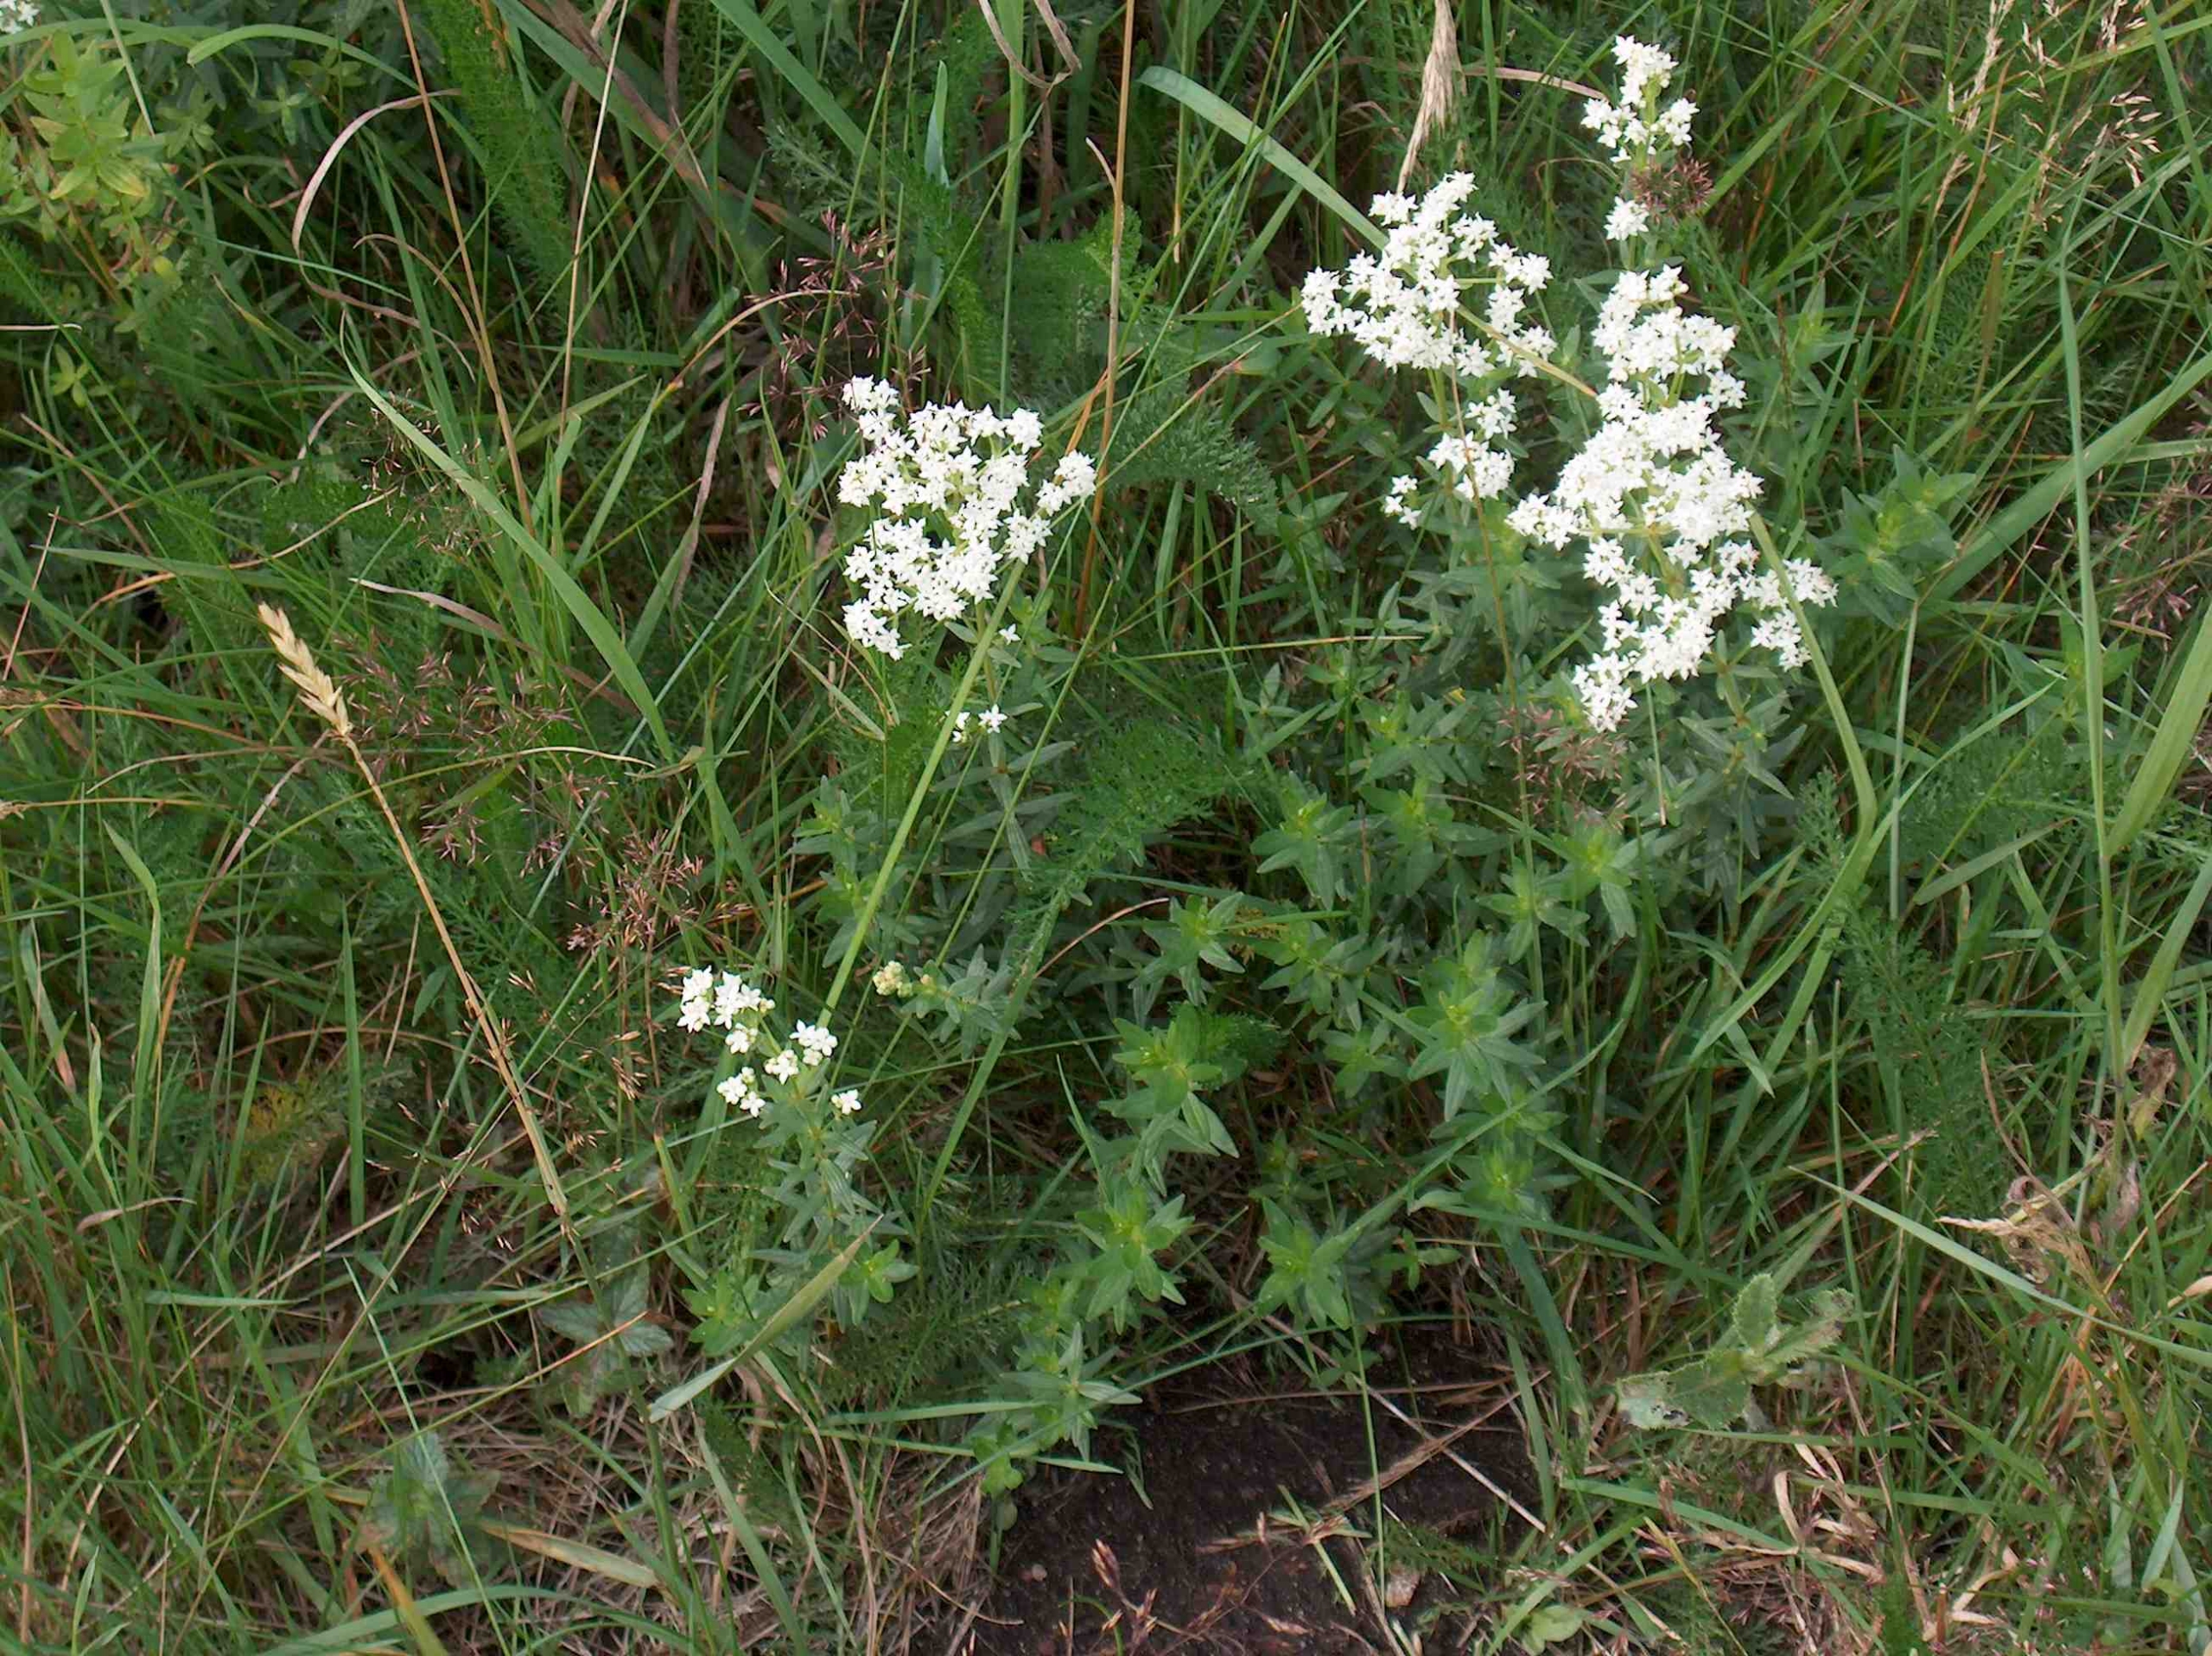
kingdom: Plantae
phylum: Tracheophyta
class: Magnoliopsida
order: Gentianales
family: Rubiaceae
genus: Galium
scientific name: Galium boreale
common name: Trenervet snerre
